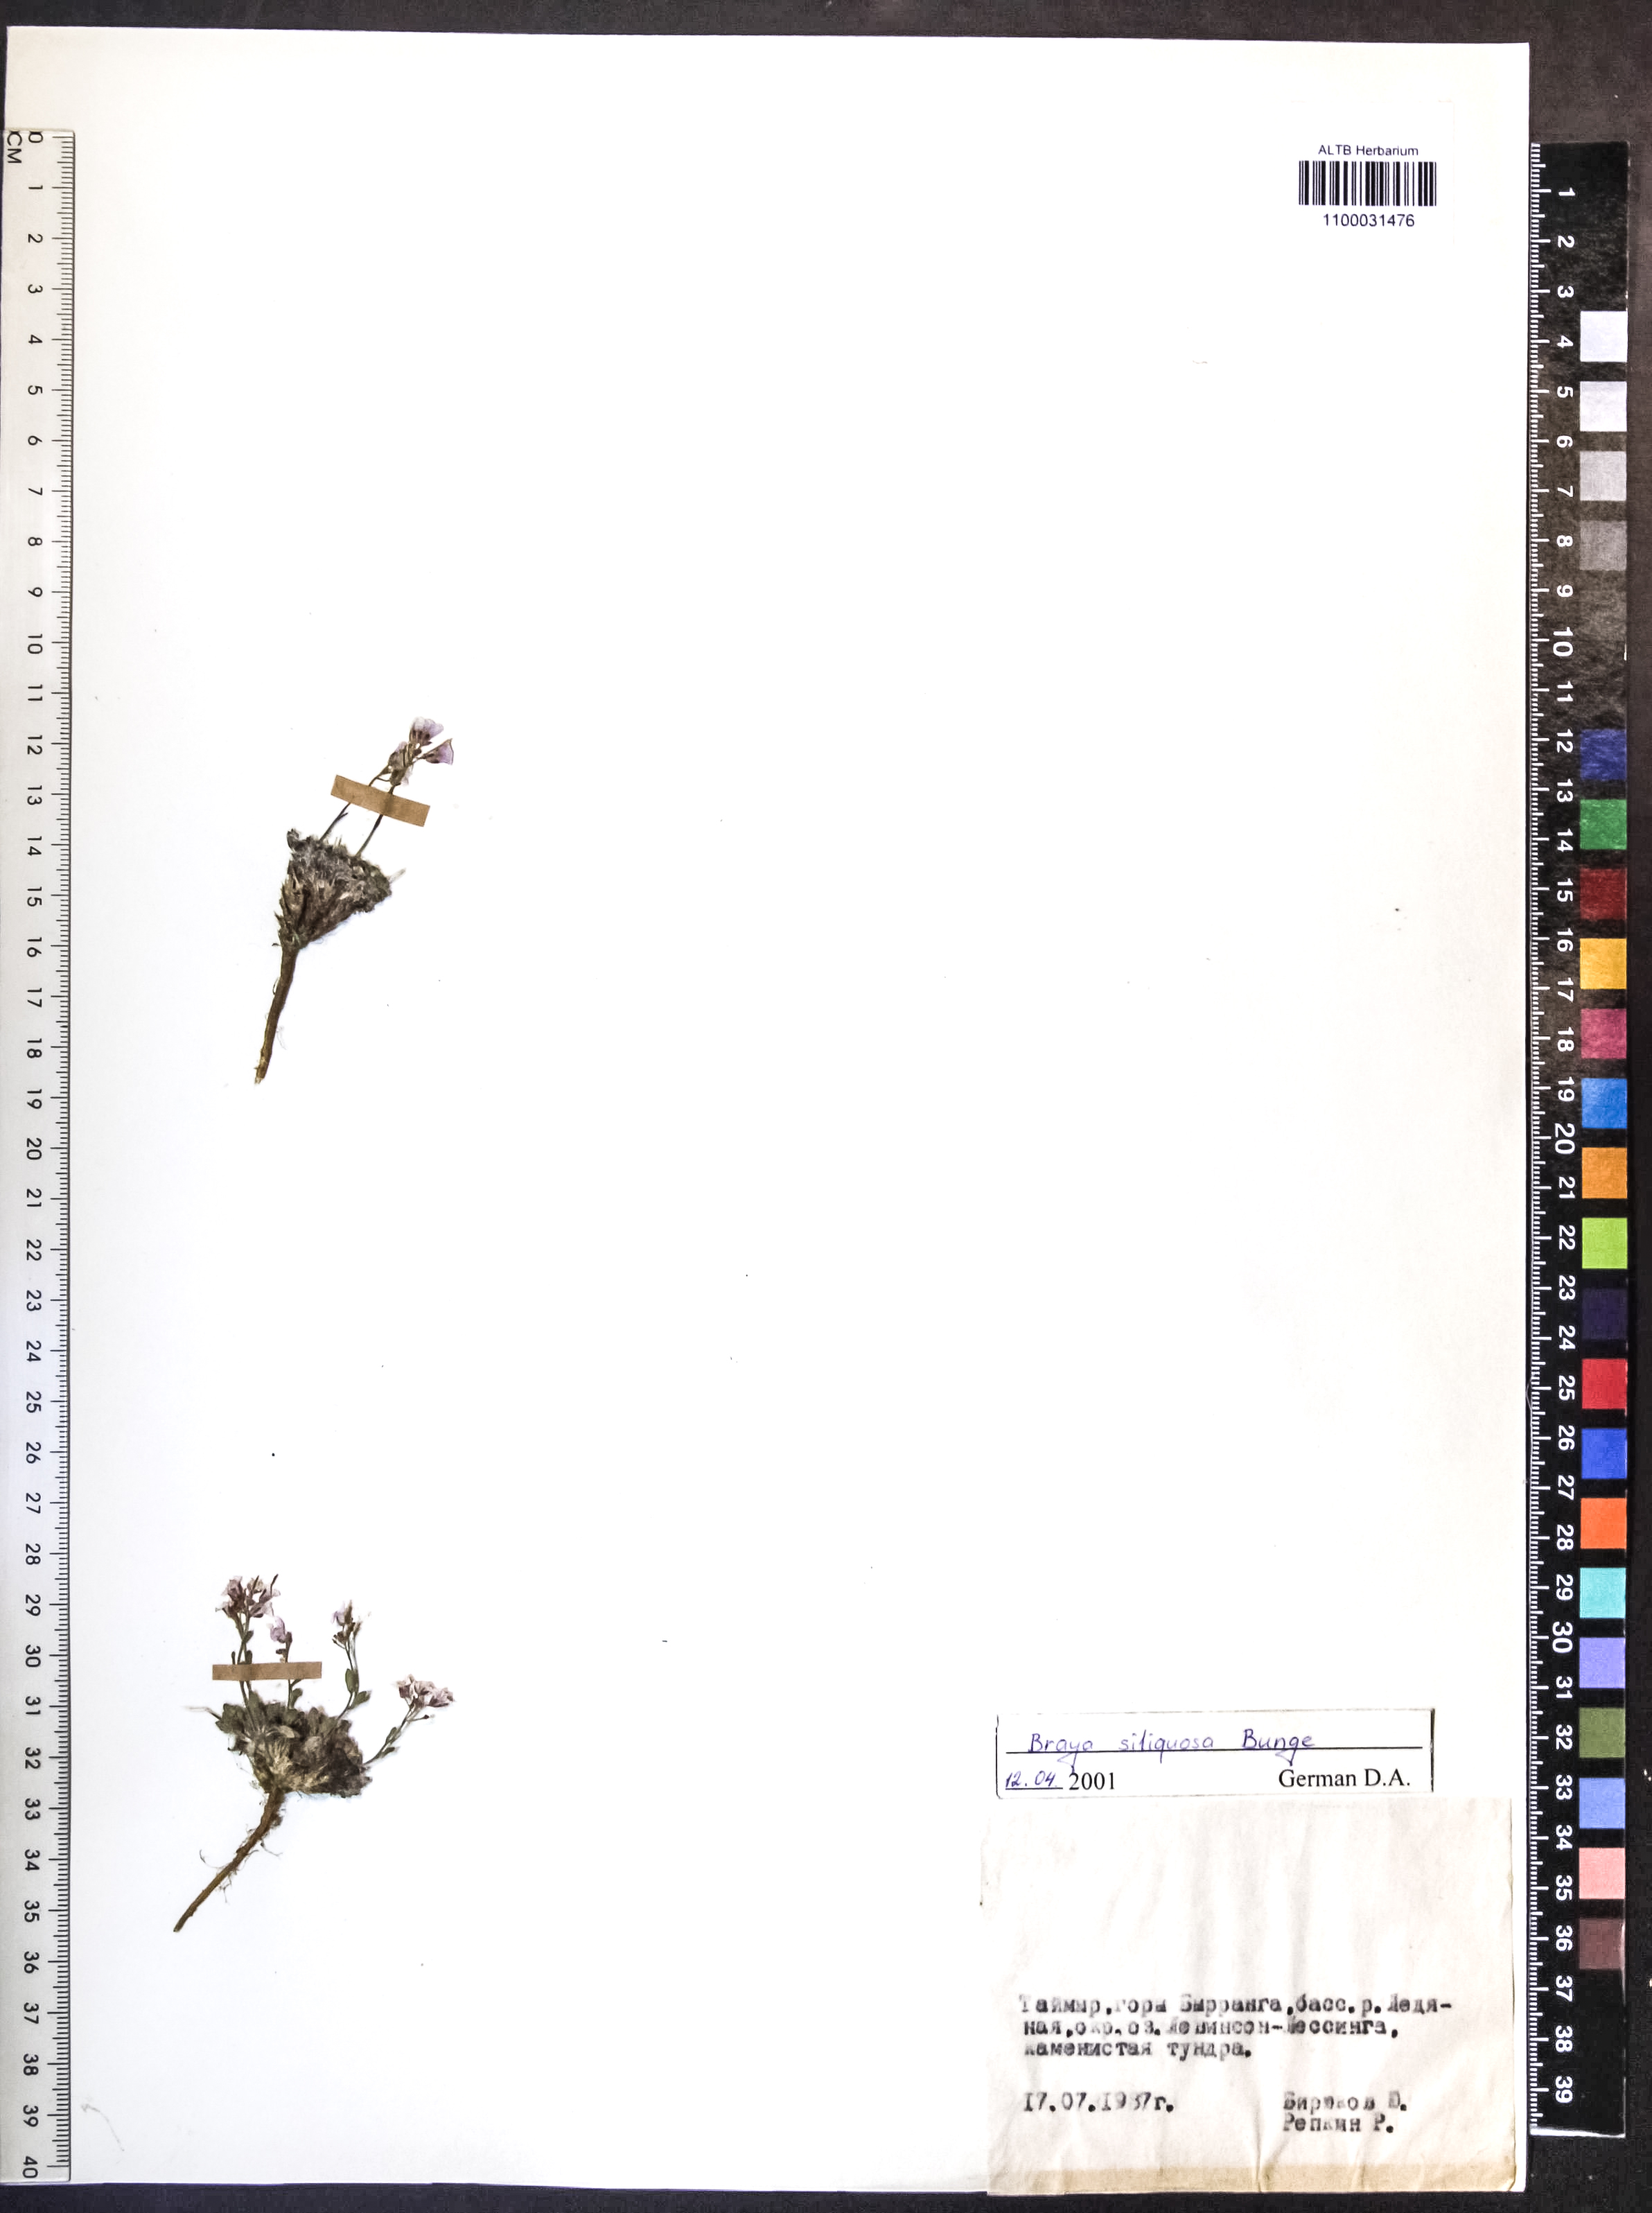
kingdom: Plantae
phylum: Tracheophyta
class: Magnoliopsida
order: Brassicales
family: Brassicaceae
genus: Braya
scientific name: Braya siliquosa
